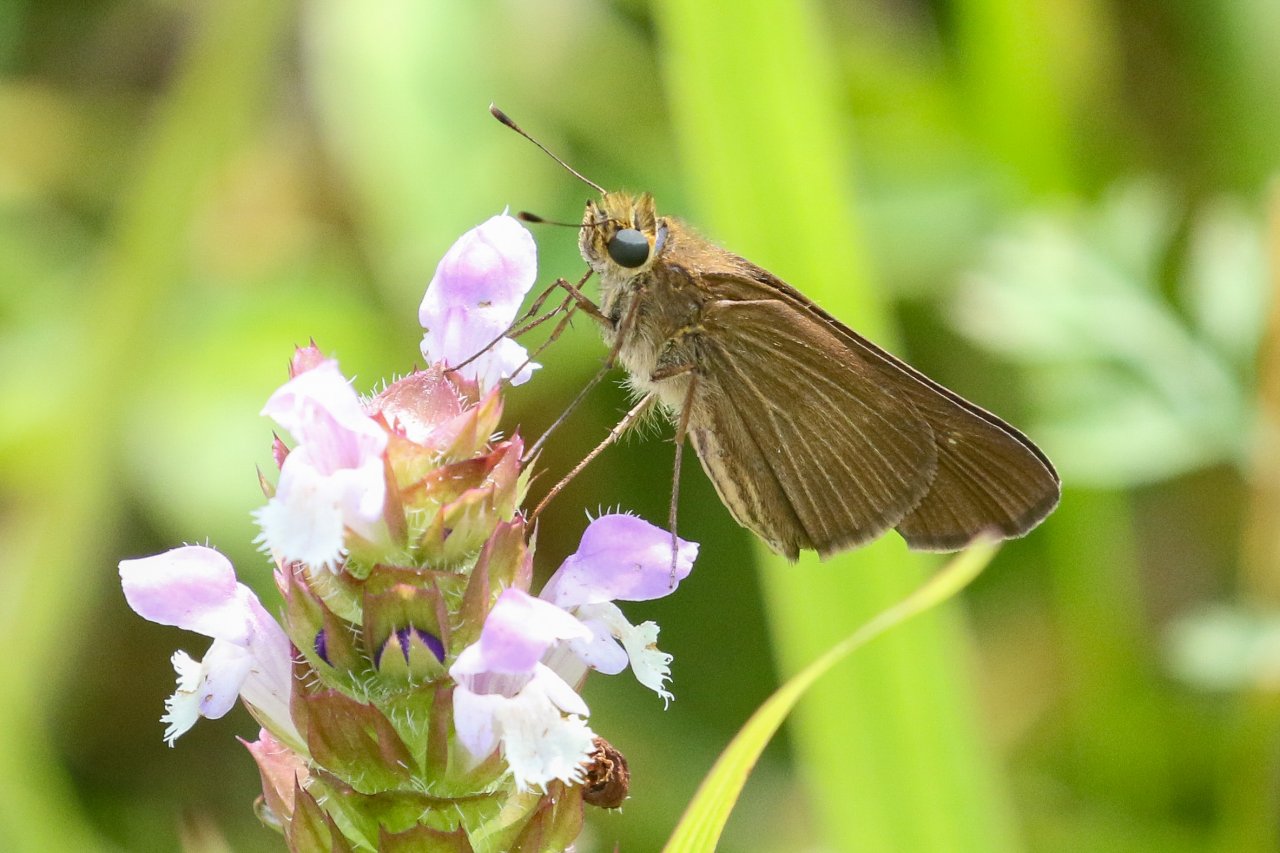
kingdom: Animalia
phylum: Arthropoda
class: Insecta
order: Lepidoptera
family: Hesperiidae
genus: Panoquina
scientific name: Panoquina ocola
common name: Ocola Skipper
